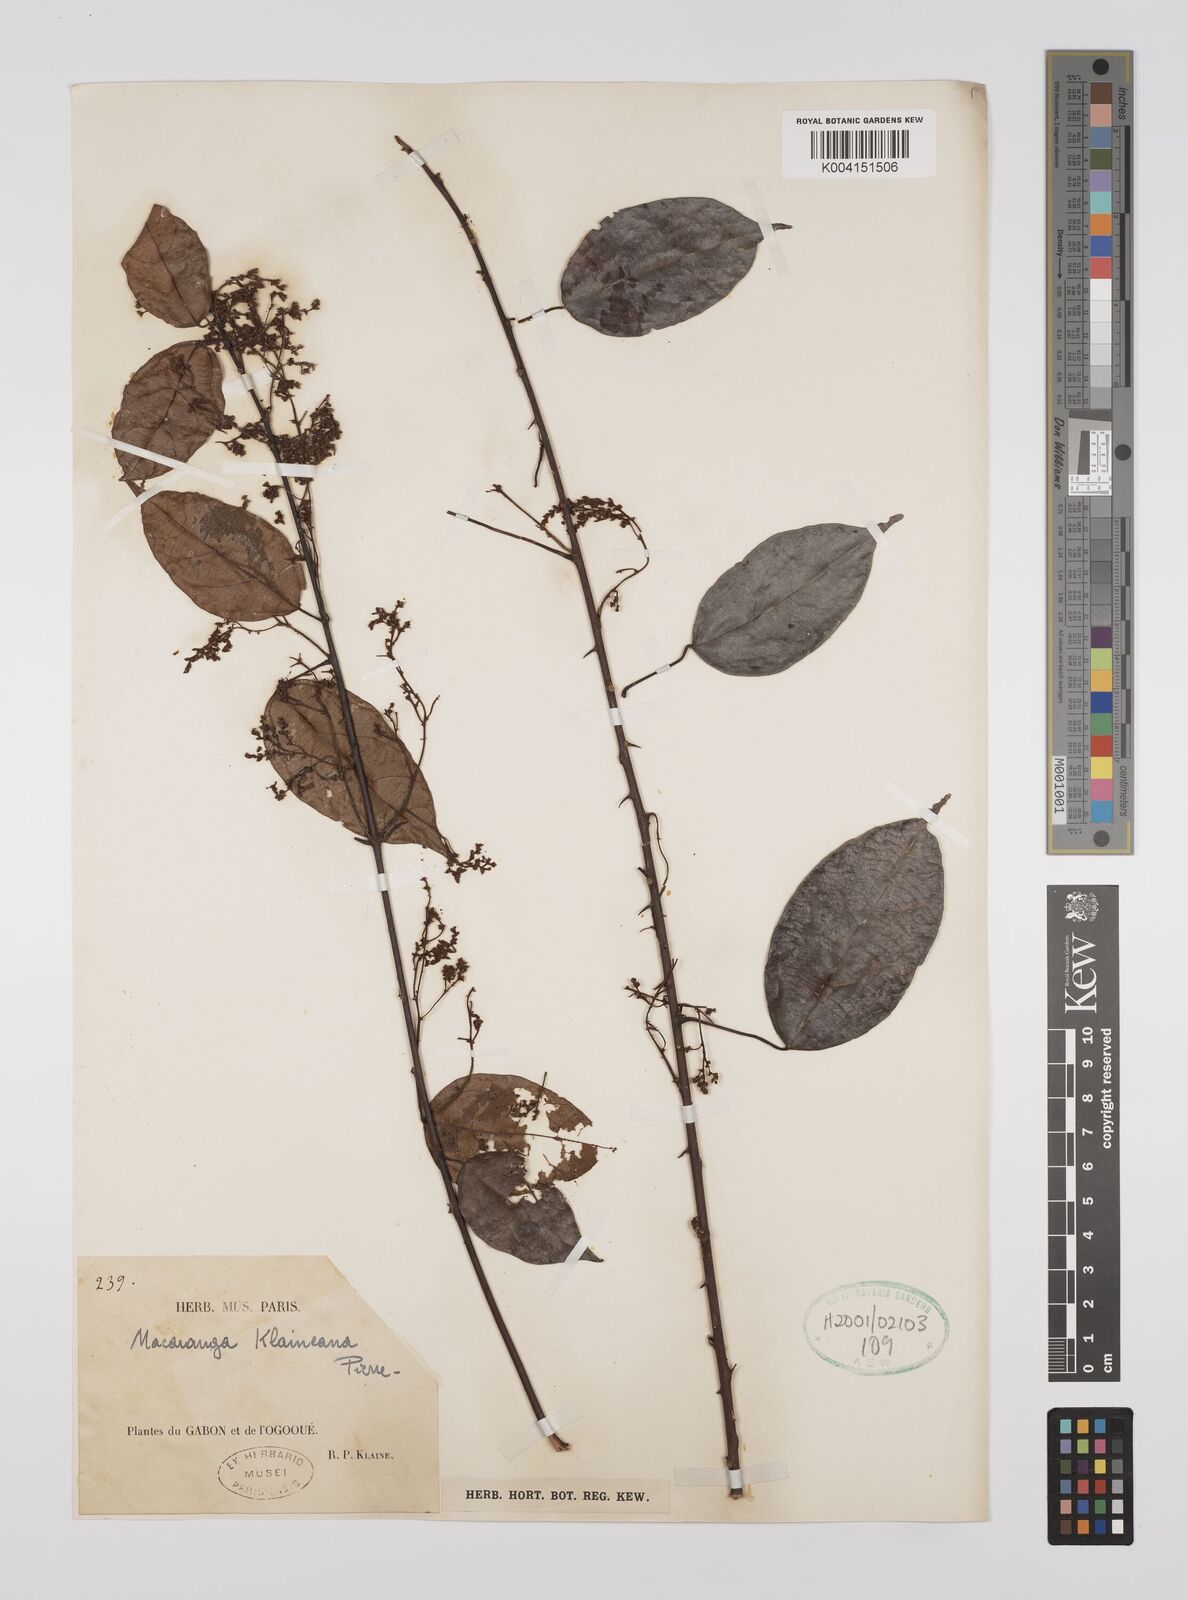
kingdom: Plantae
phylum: Tracheophyta
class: Magnoliopsida
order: Malpighiales
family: Euphorbiaceae
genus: Macaranga
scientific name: Macaranga klaineana
